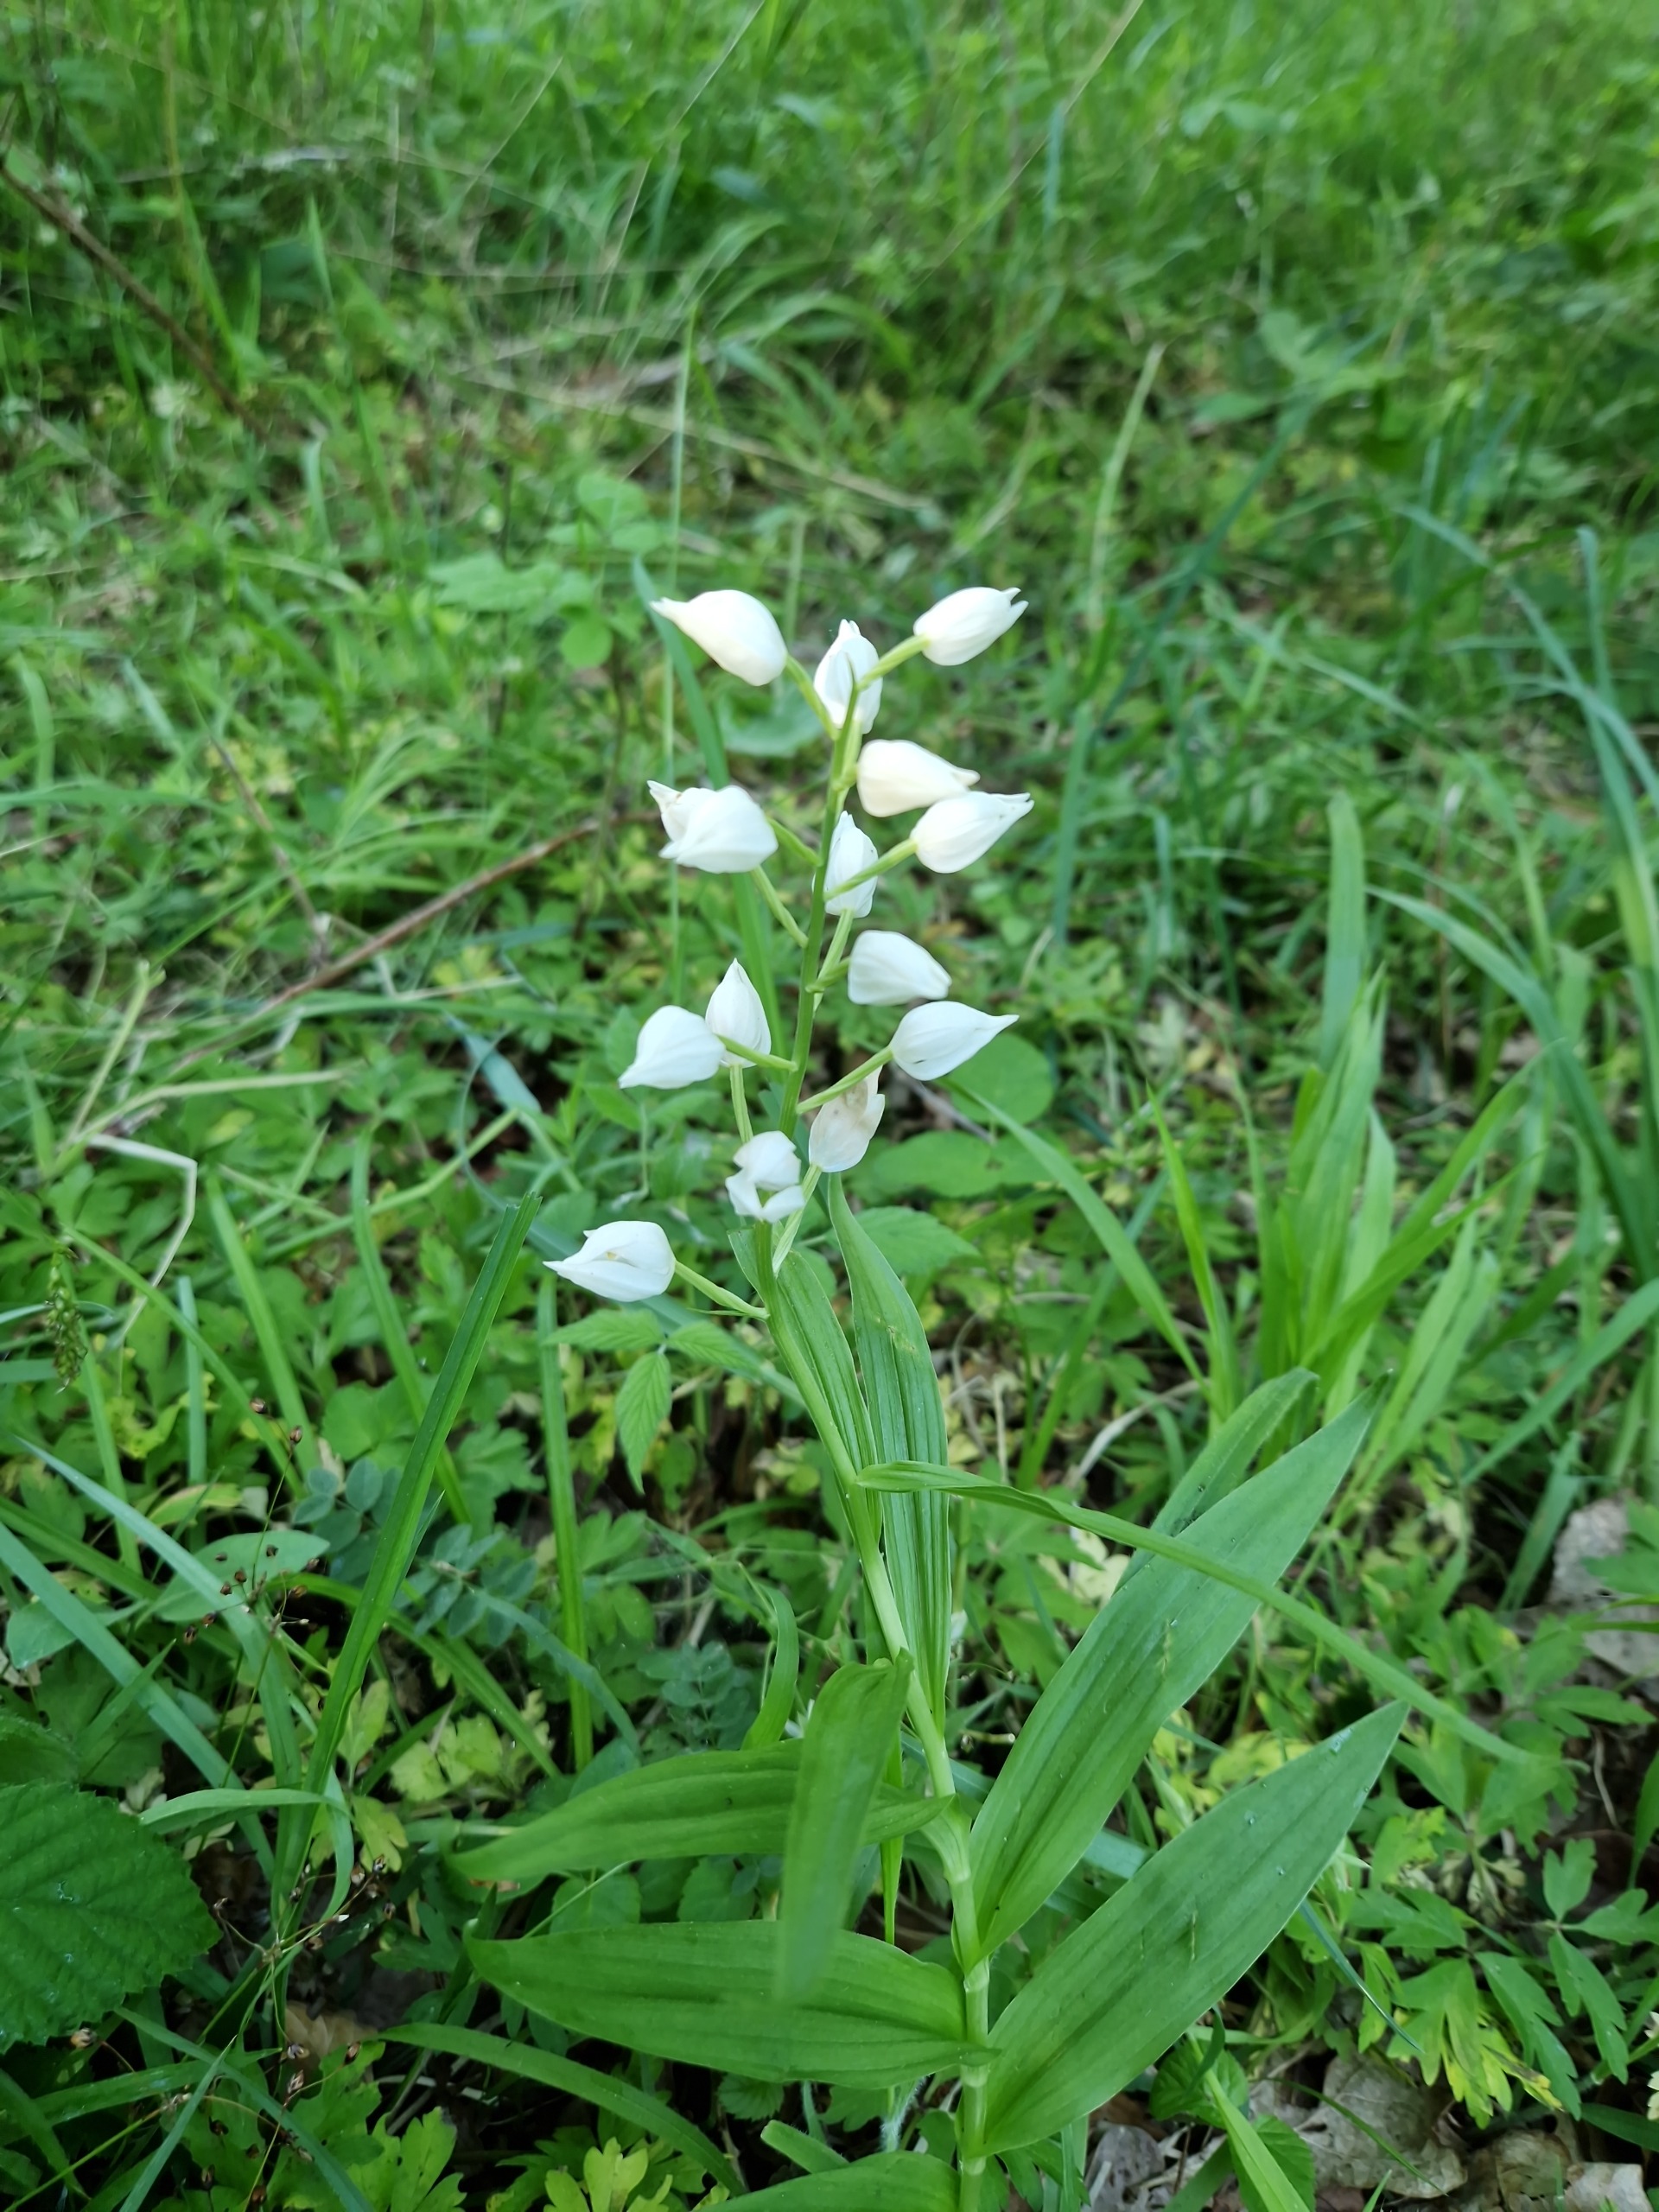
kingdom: Plantae
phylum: Tracheophyta
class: Liliopsida
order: Asparagales
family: Orchidaceae
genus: Cephalanthera
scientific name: Cephalanthera longifolia
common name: Sværd-skovlilje
